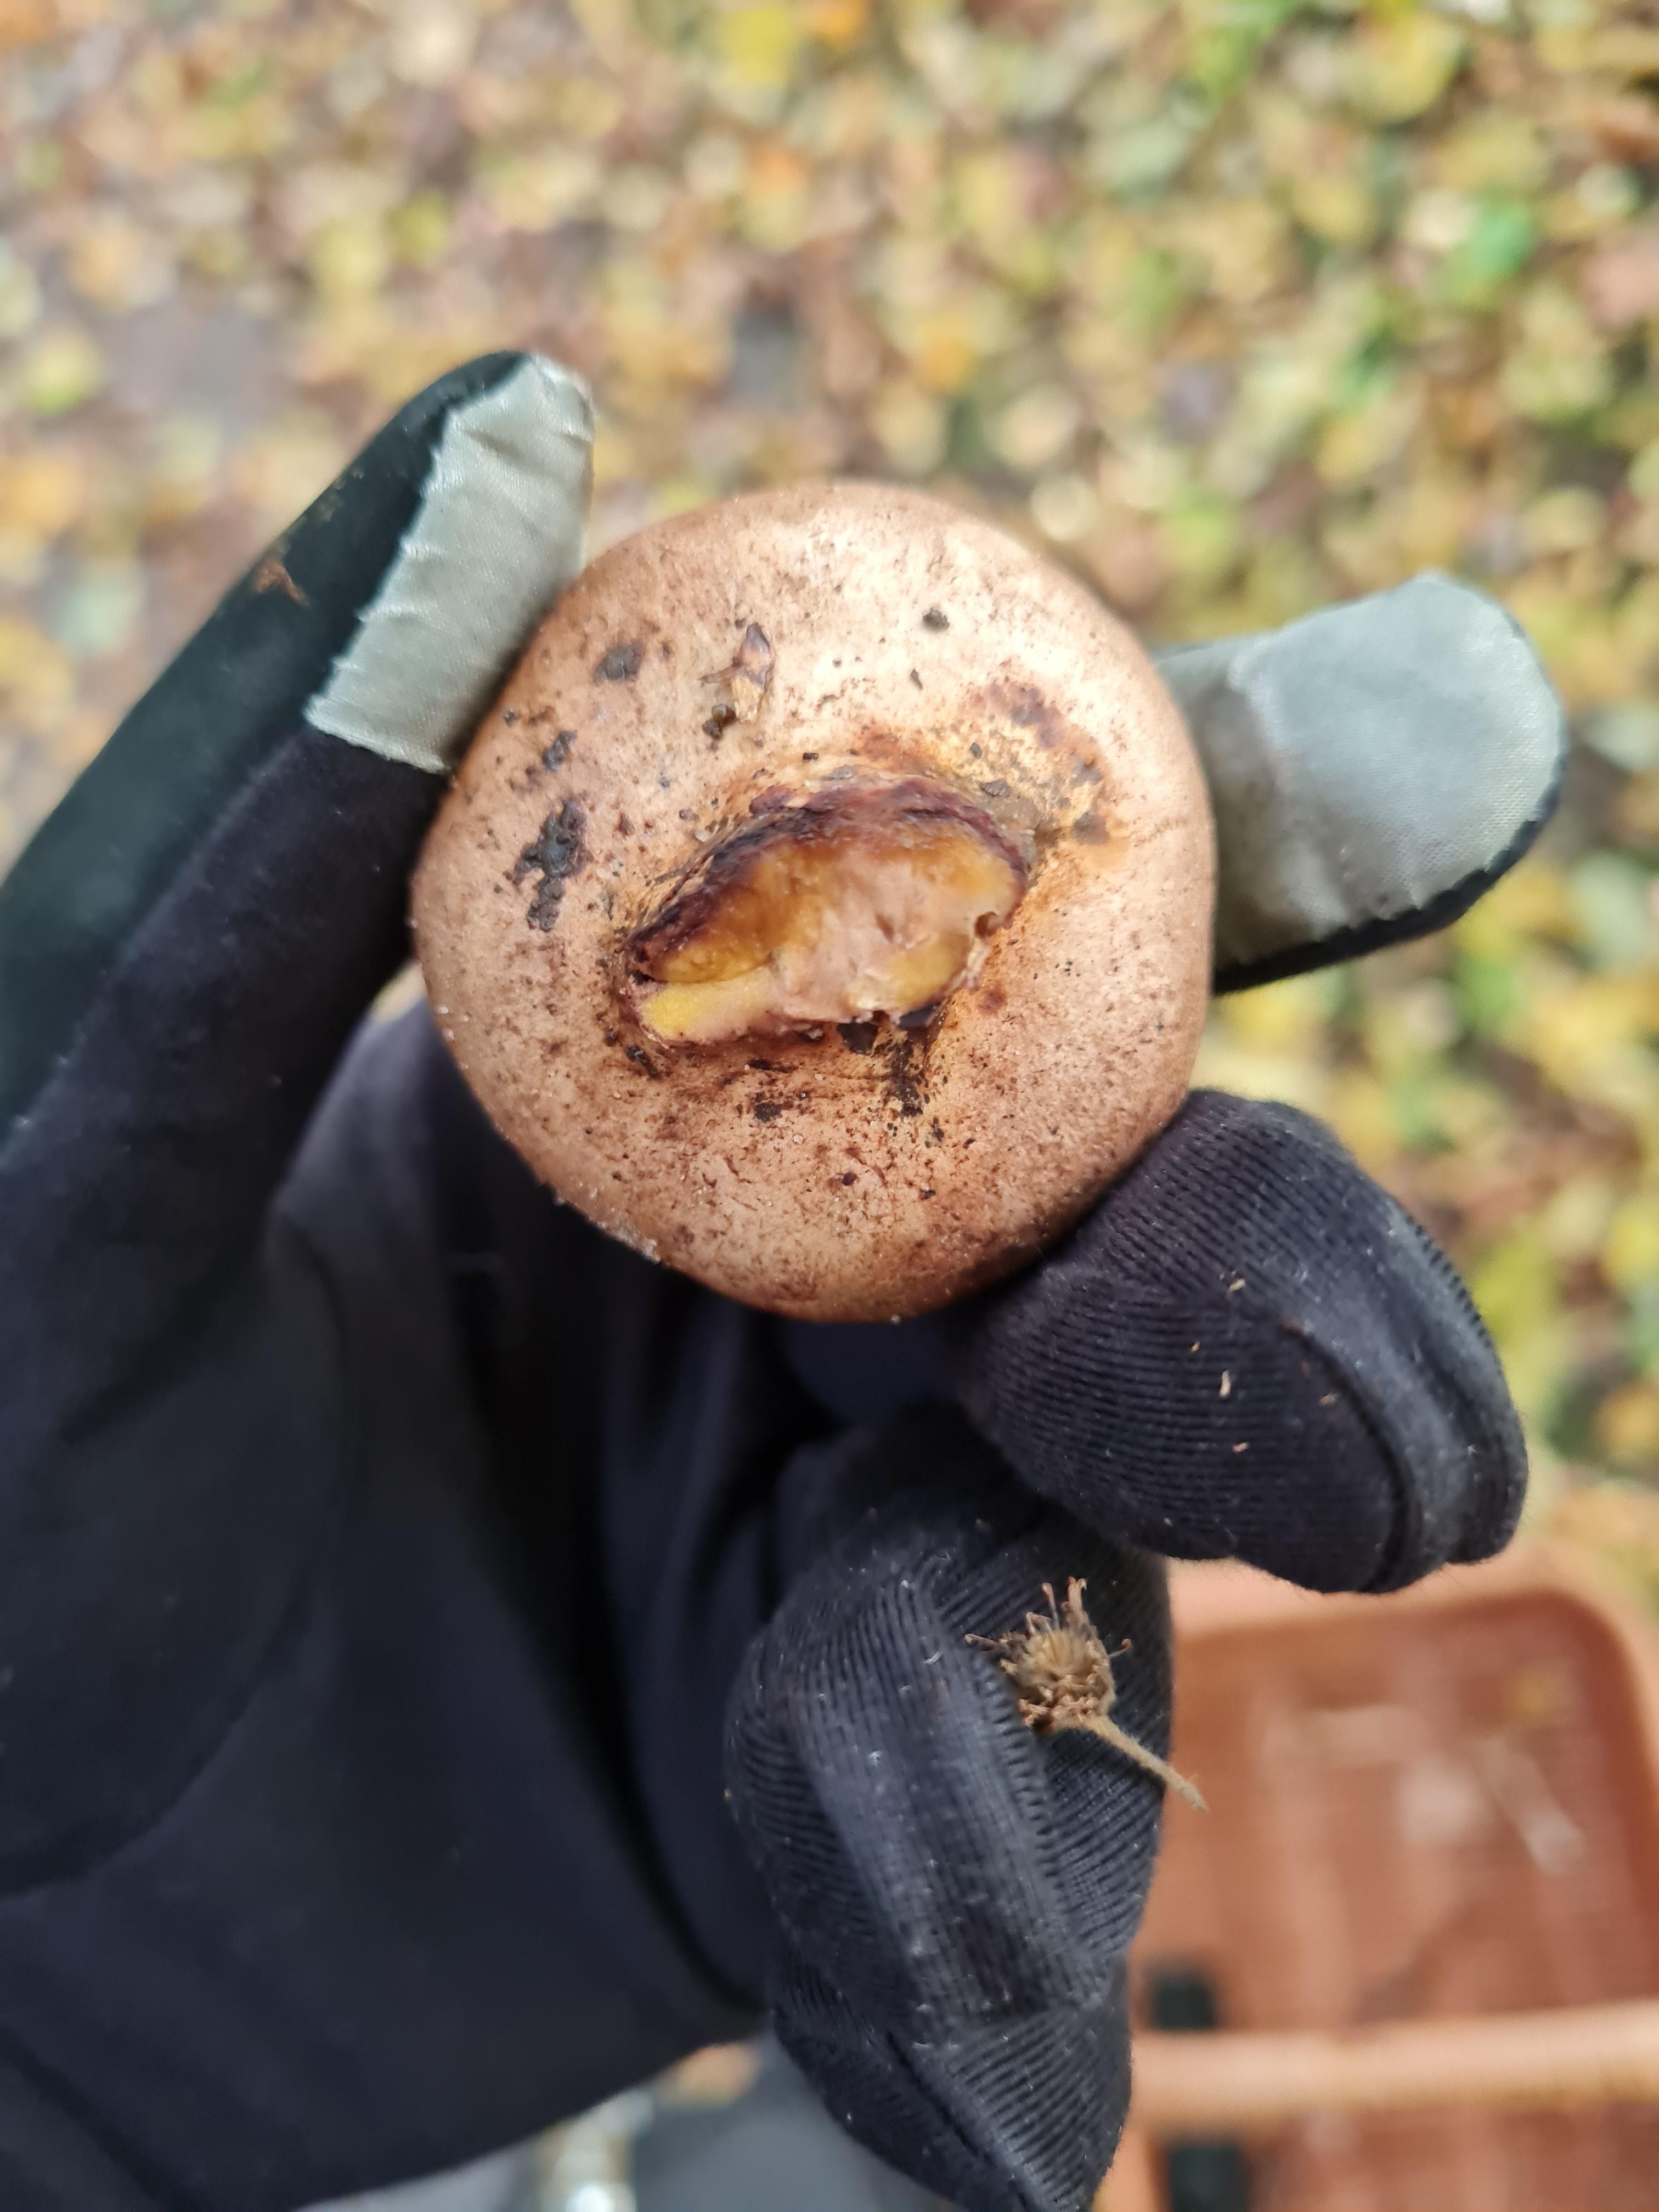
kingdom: Fungi
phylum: Basidiomycota
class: Agaricomycetes
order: Boletales
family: Sclerodermataceae
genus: Scleroderma
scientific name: Scleroderma
